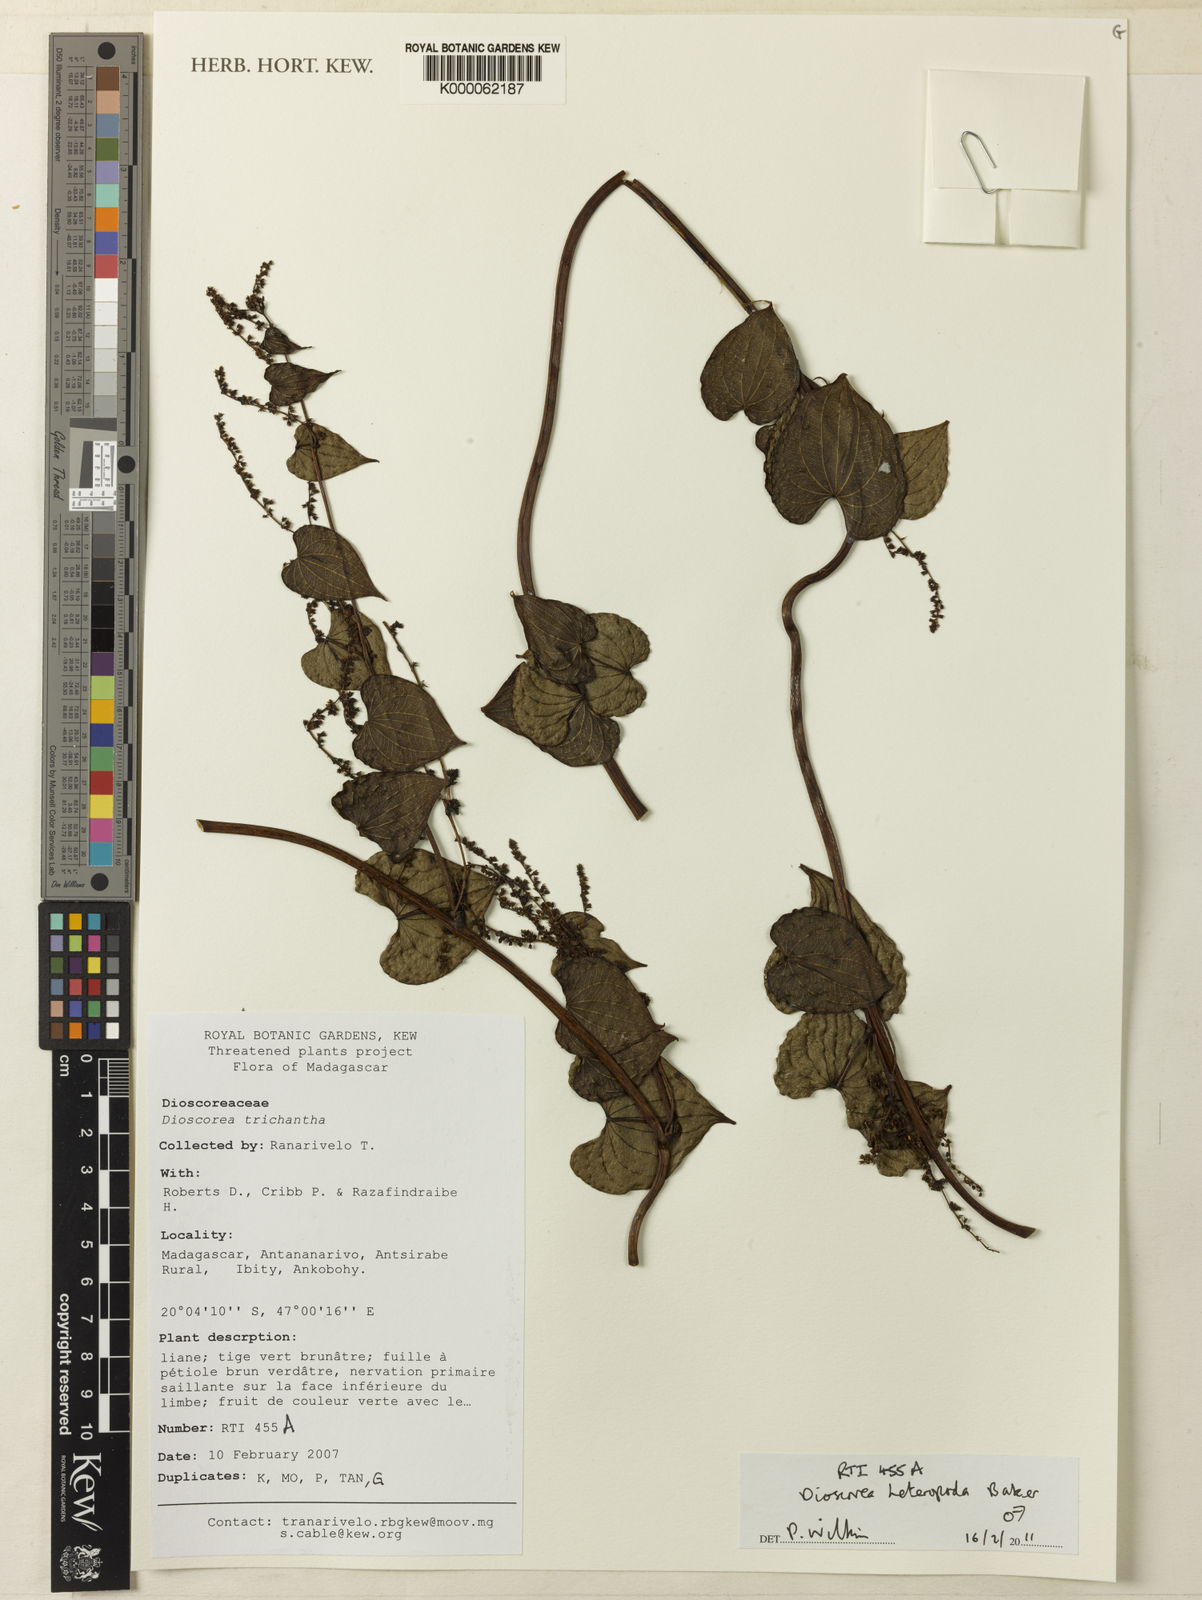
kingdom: Plantae
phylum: Tracheophyta
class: Liliopsida
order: Dioscoreales
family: Dioscoreaceae
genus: Dioscorea
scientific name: Dioscorea heteropoda
